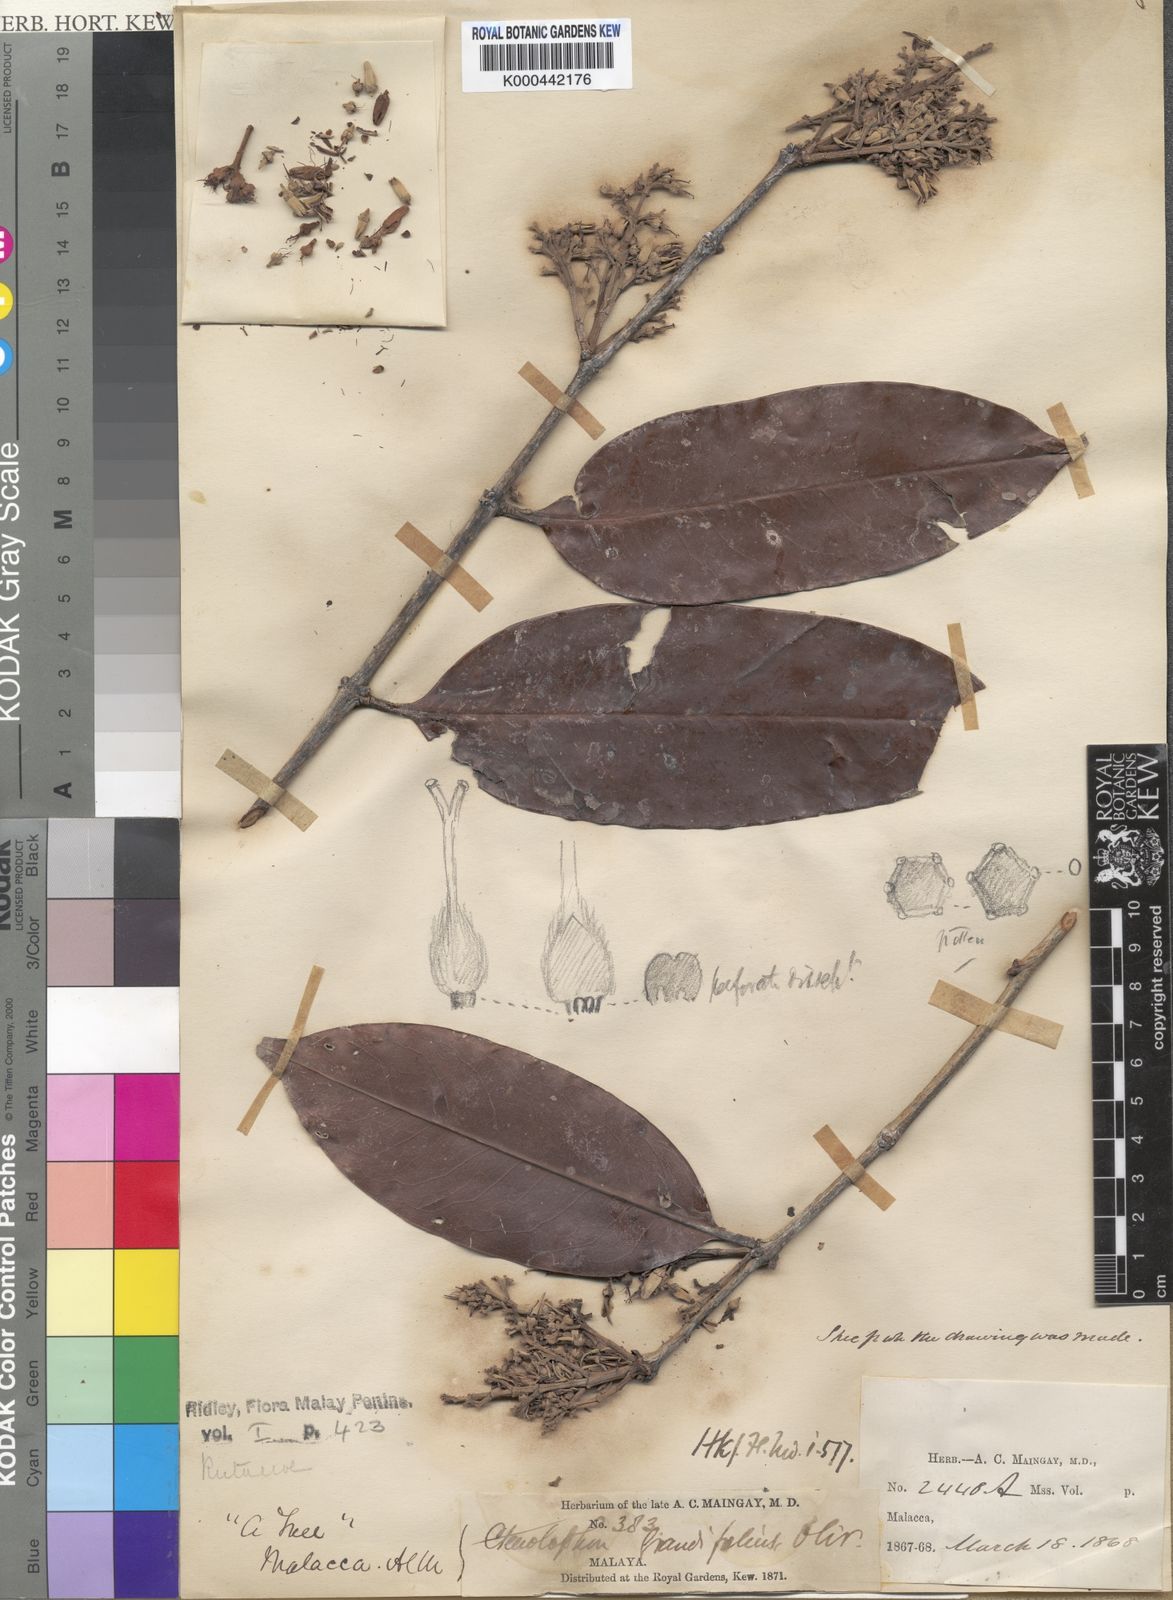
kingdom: Plantae
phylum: Tracheophyta
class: Magnoliopsida
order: Malpighiales
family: Ctenolophonaceae
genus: Ctenolophon
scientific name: Ctenolophon parvifolius
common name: Mertas
